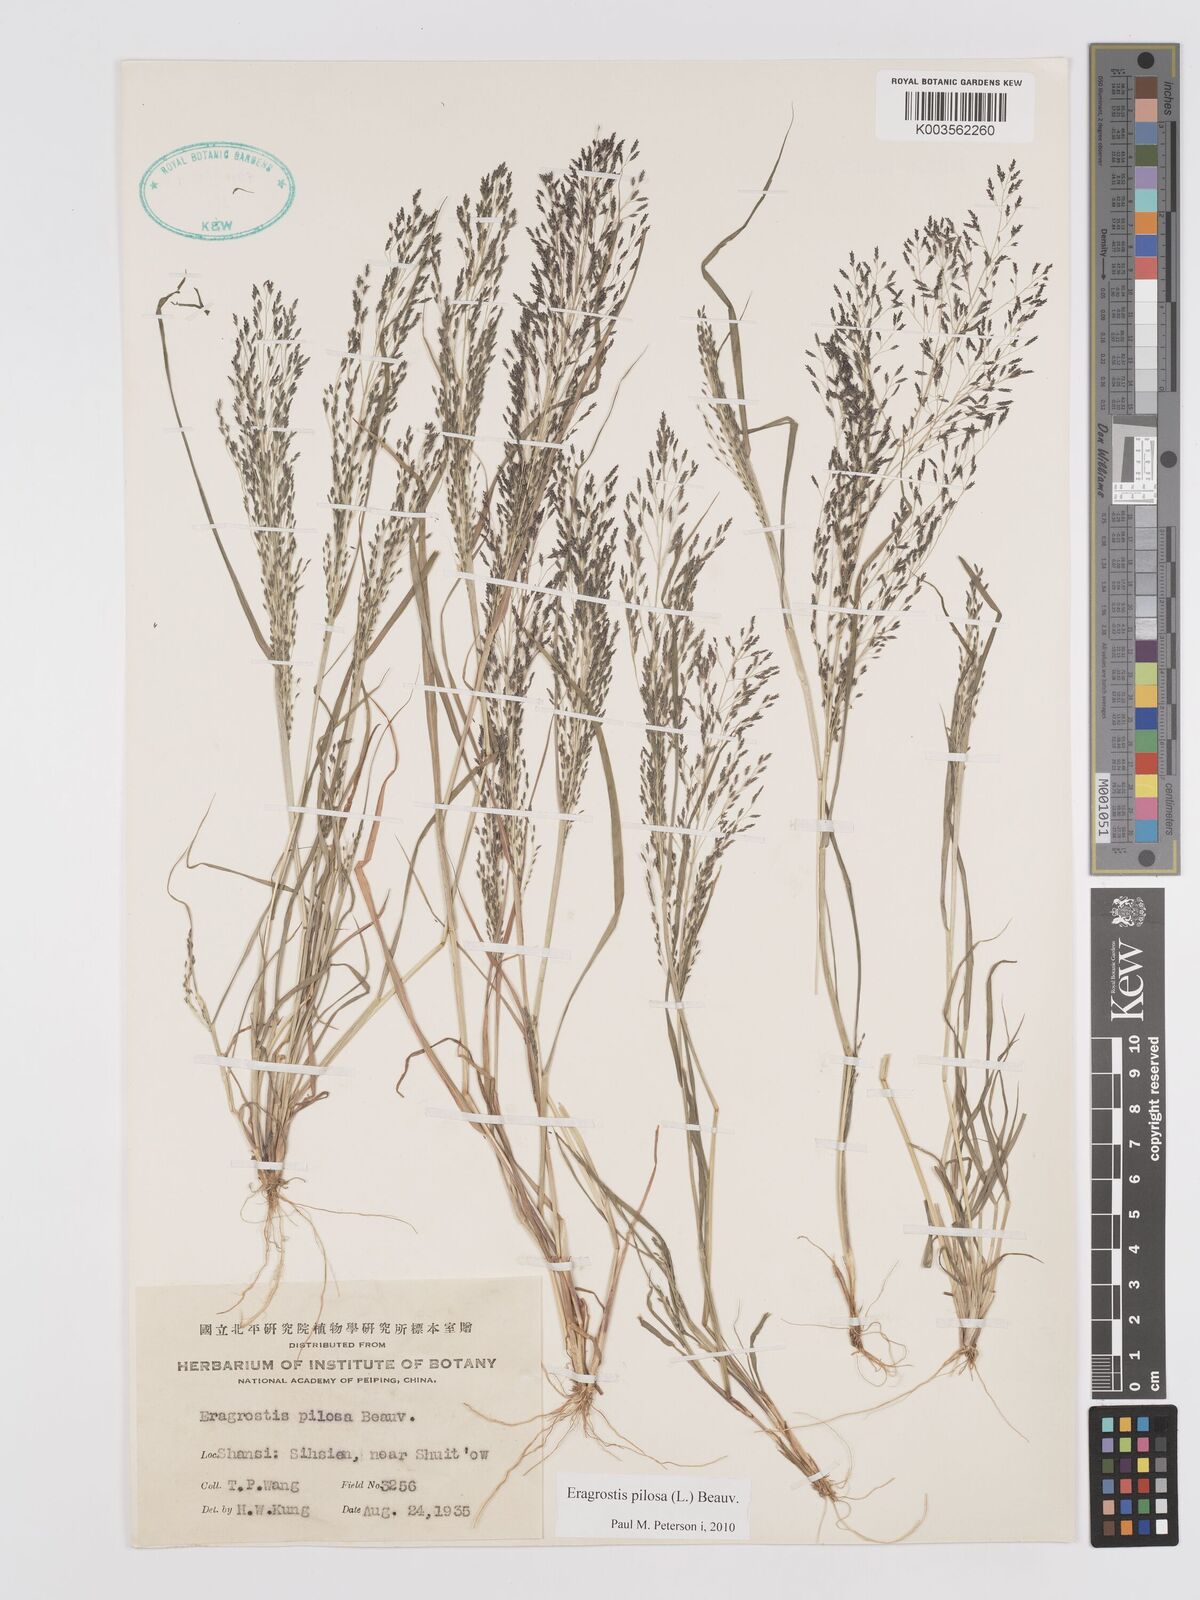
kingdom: Plantae
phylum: Tracheophyta
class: Liliopsida
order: Poales
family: Poaceae
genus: Eragrostis
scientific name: Eragrostis pilosa
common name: Indian lovegrass
